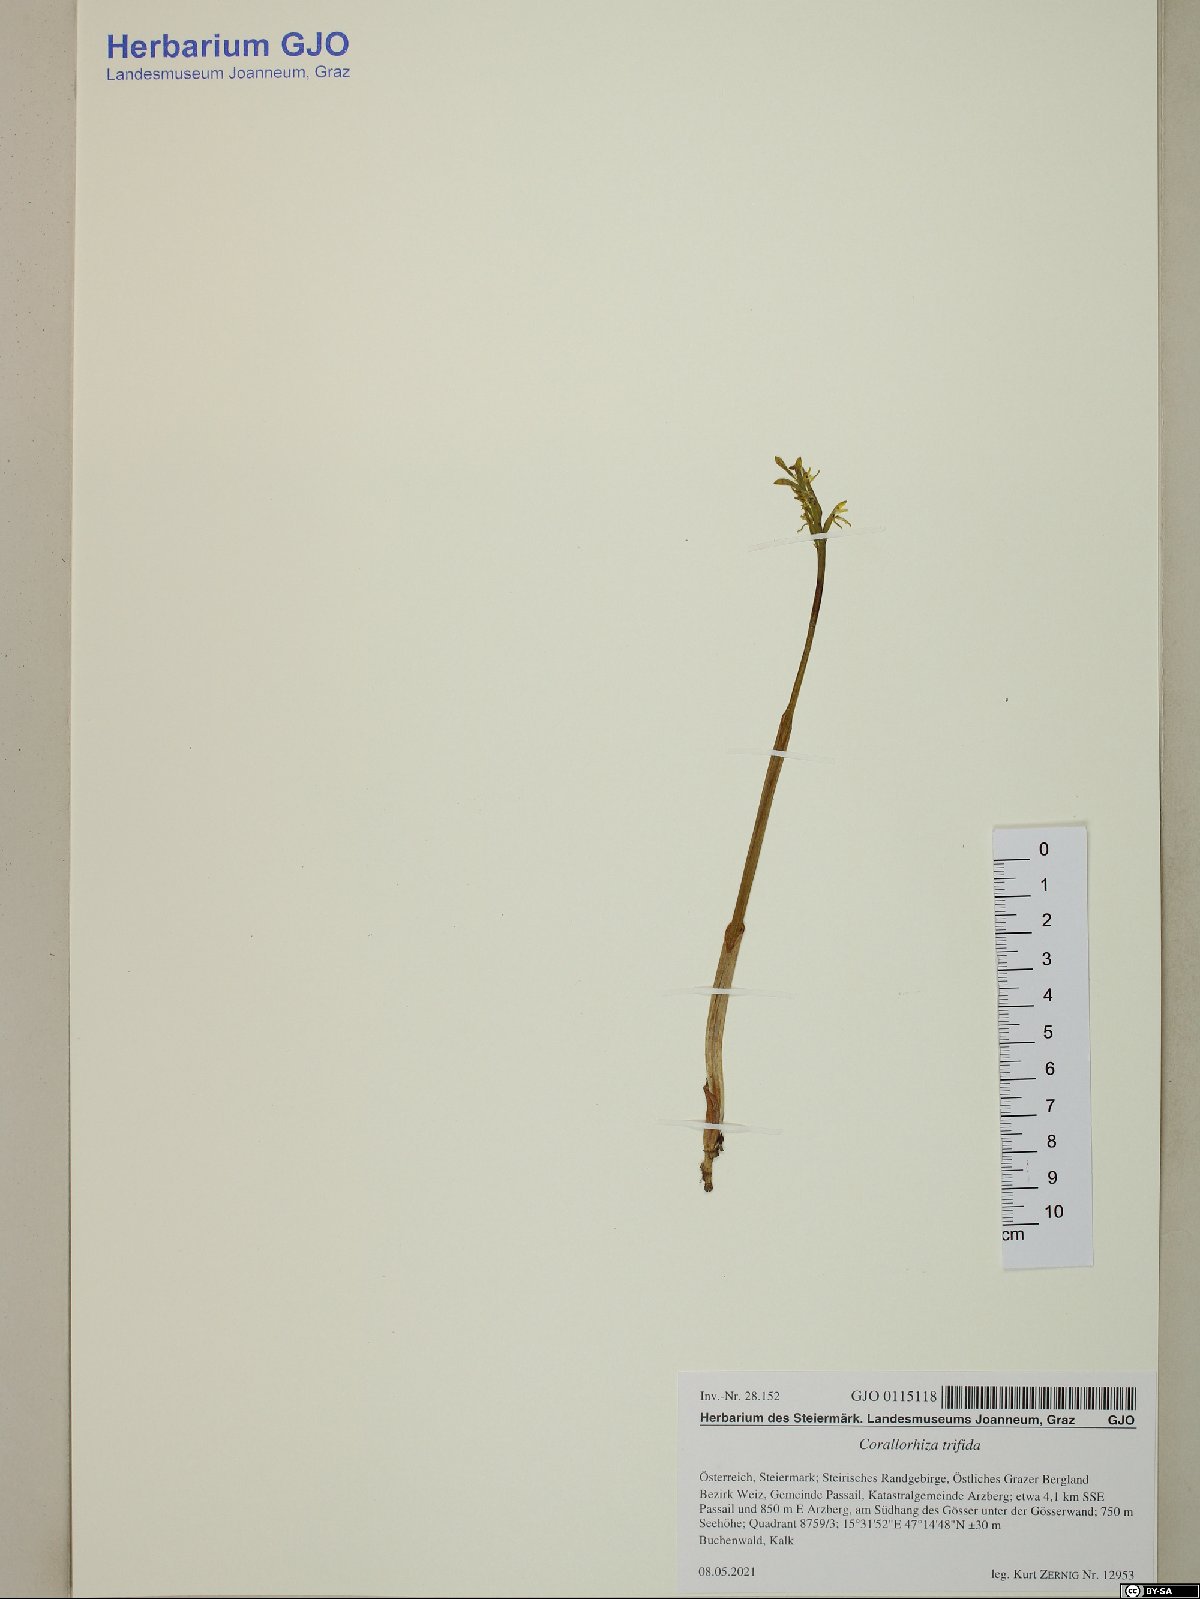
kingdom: Plantae
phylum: Tracheophyta
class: Liliopsida
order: Asparagales
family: Orchidaceae
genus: Corallorhiza
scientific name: Corallorhiza trifida
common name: Yellow coralroot
